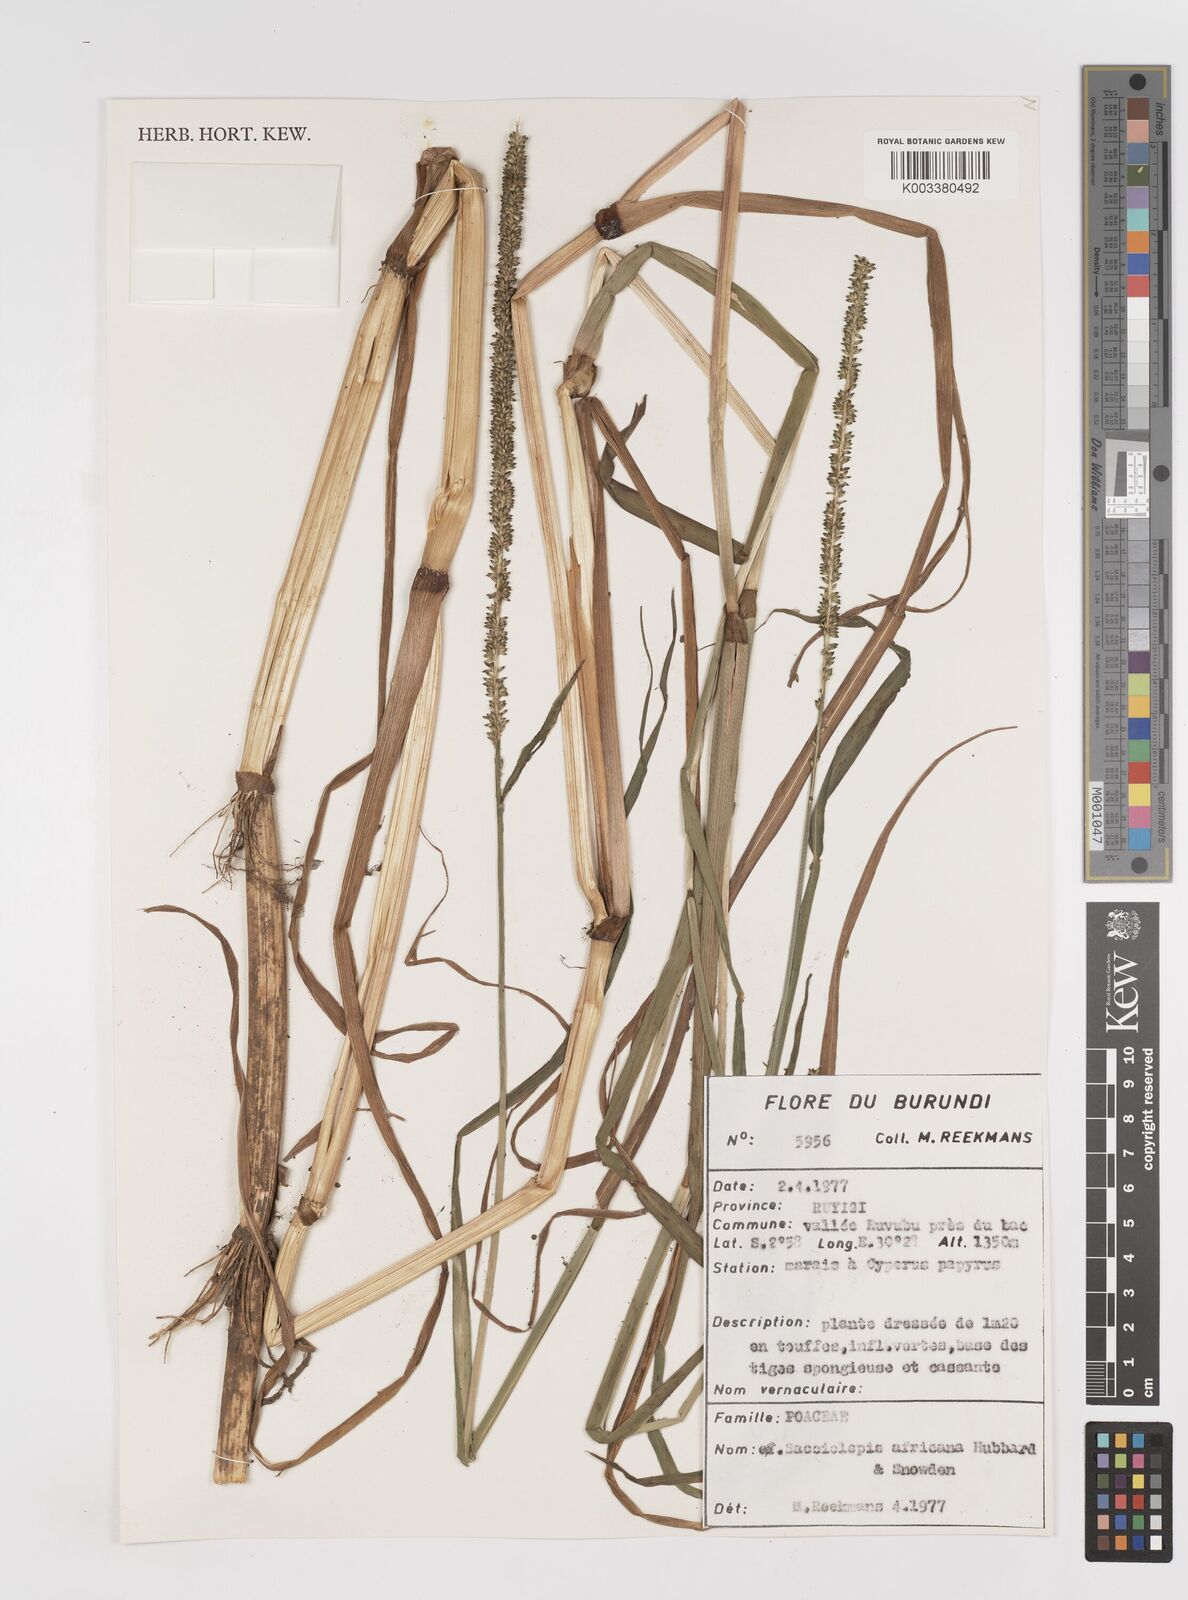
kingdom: Plantae
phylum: Tracheophyta
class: Liliopsida
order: Poales
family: Poaceae
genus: Sacciolepis
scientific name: Sacciolepis africana
